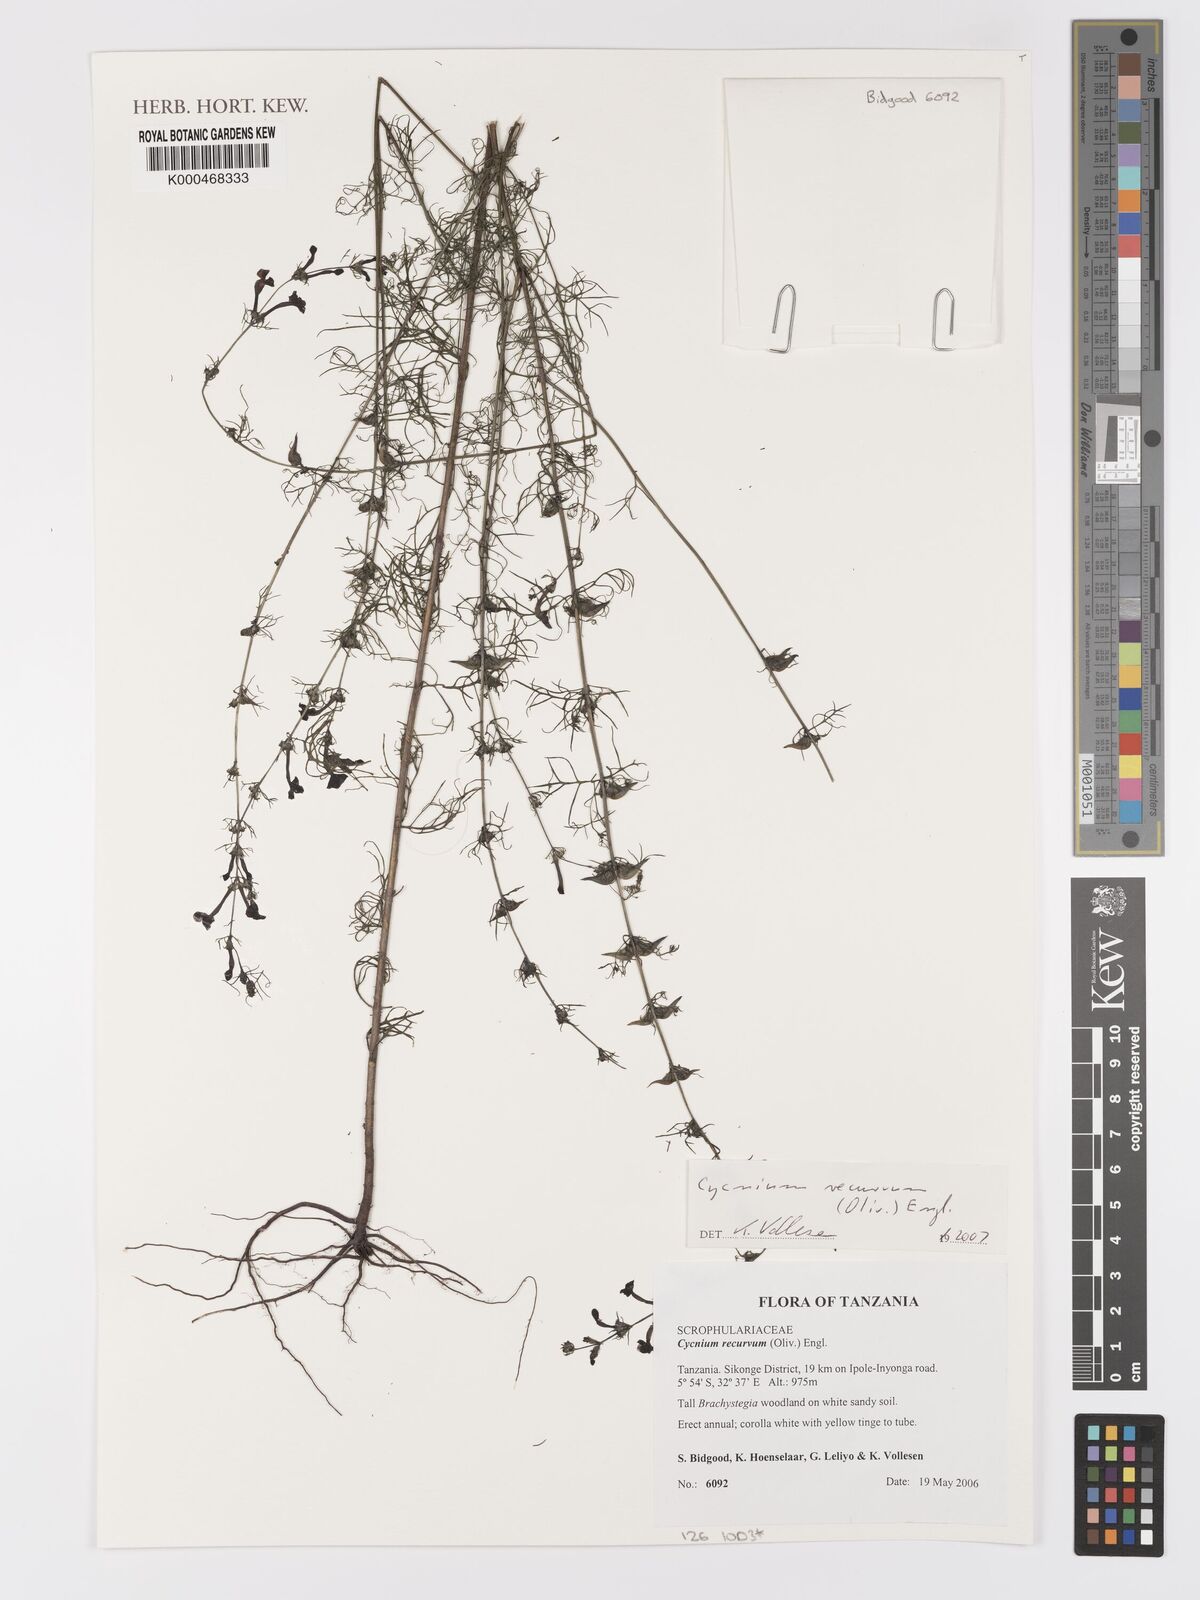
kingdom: Plantae
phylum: Tracheophyta
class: Magnoliopsida
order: Lamiales
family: Orobanchaceae
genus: Cycnium
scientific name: Cycnium recurvum
